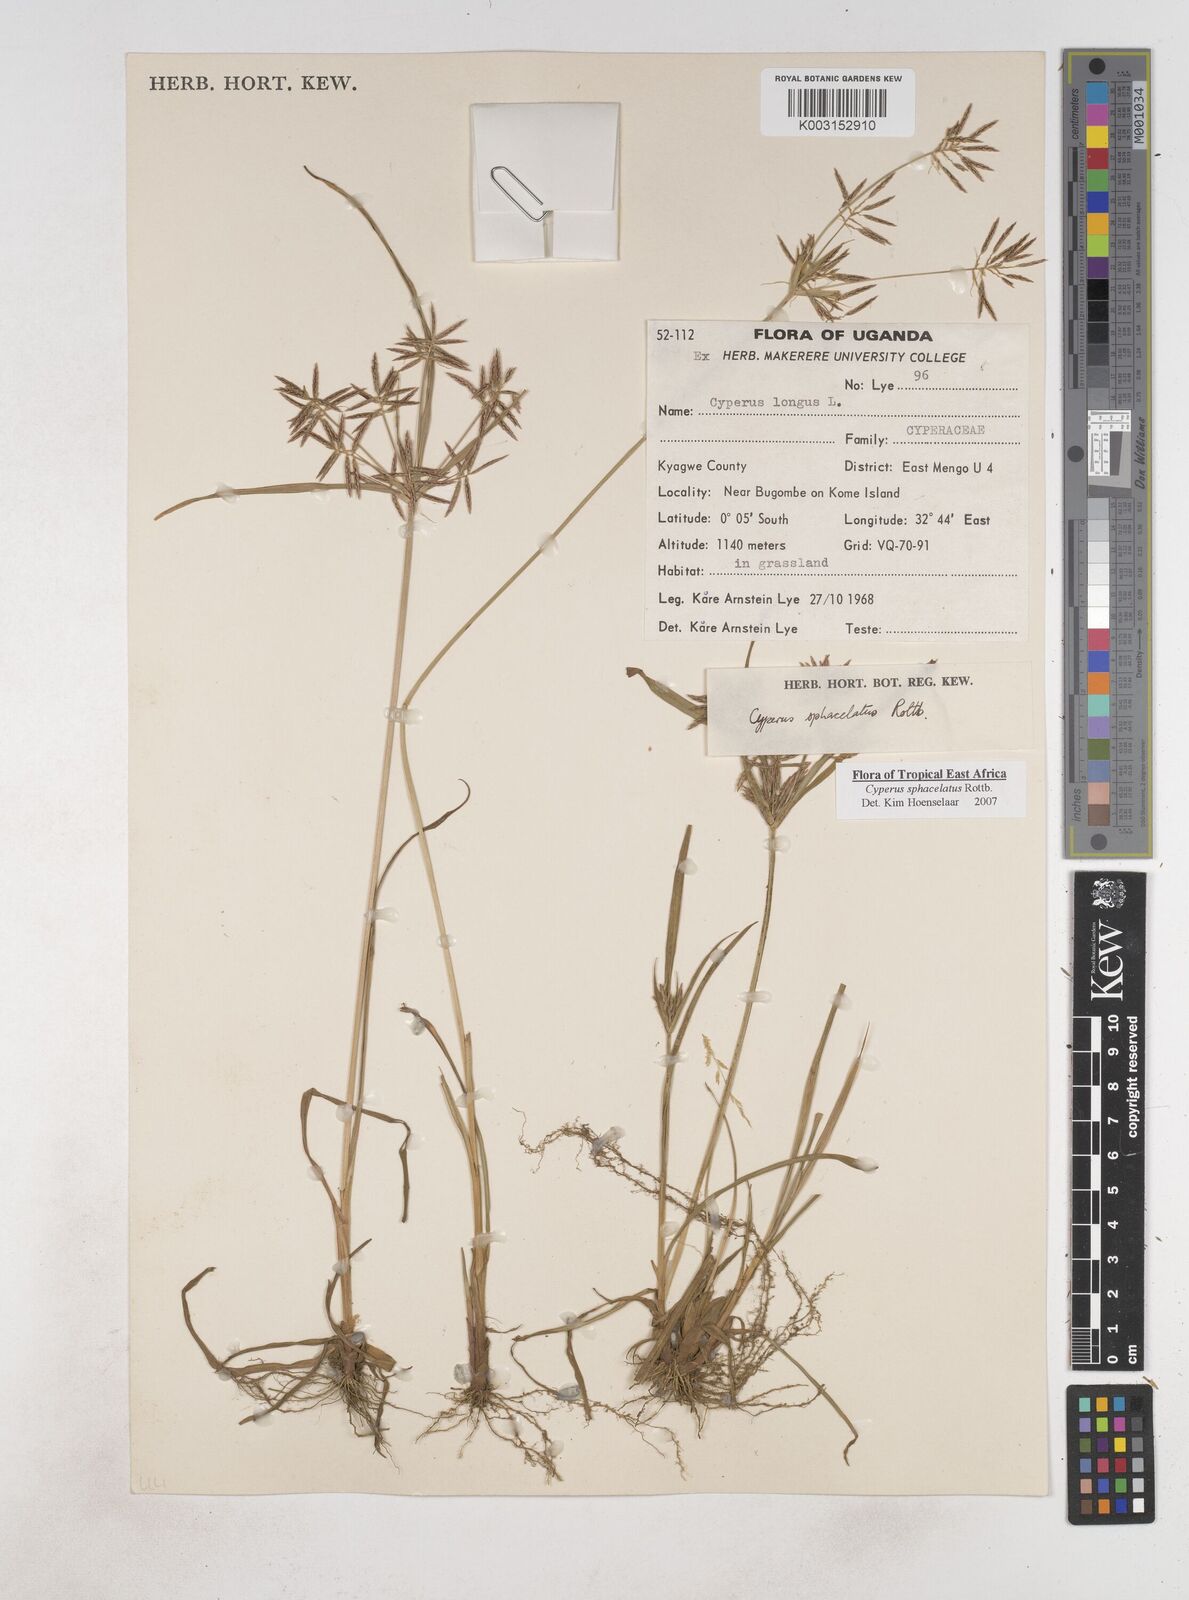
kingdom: Plantae
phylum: Tracheophyta
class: Liliopsida
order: Poales
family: Cyperaceae
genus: Cyperus
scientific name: Cyperus sphacelatus
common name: Roadside flatsedge
